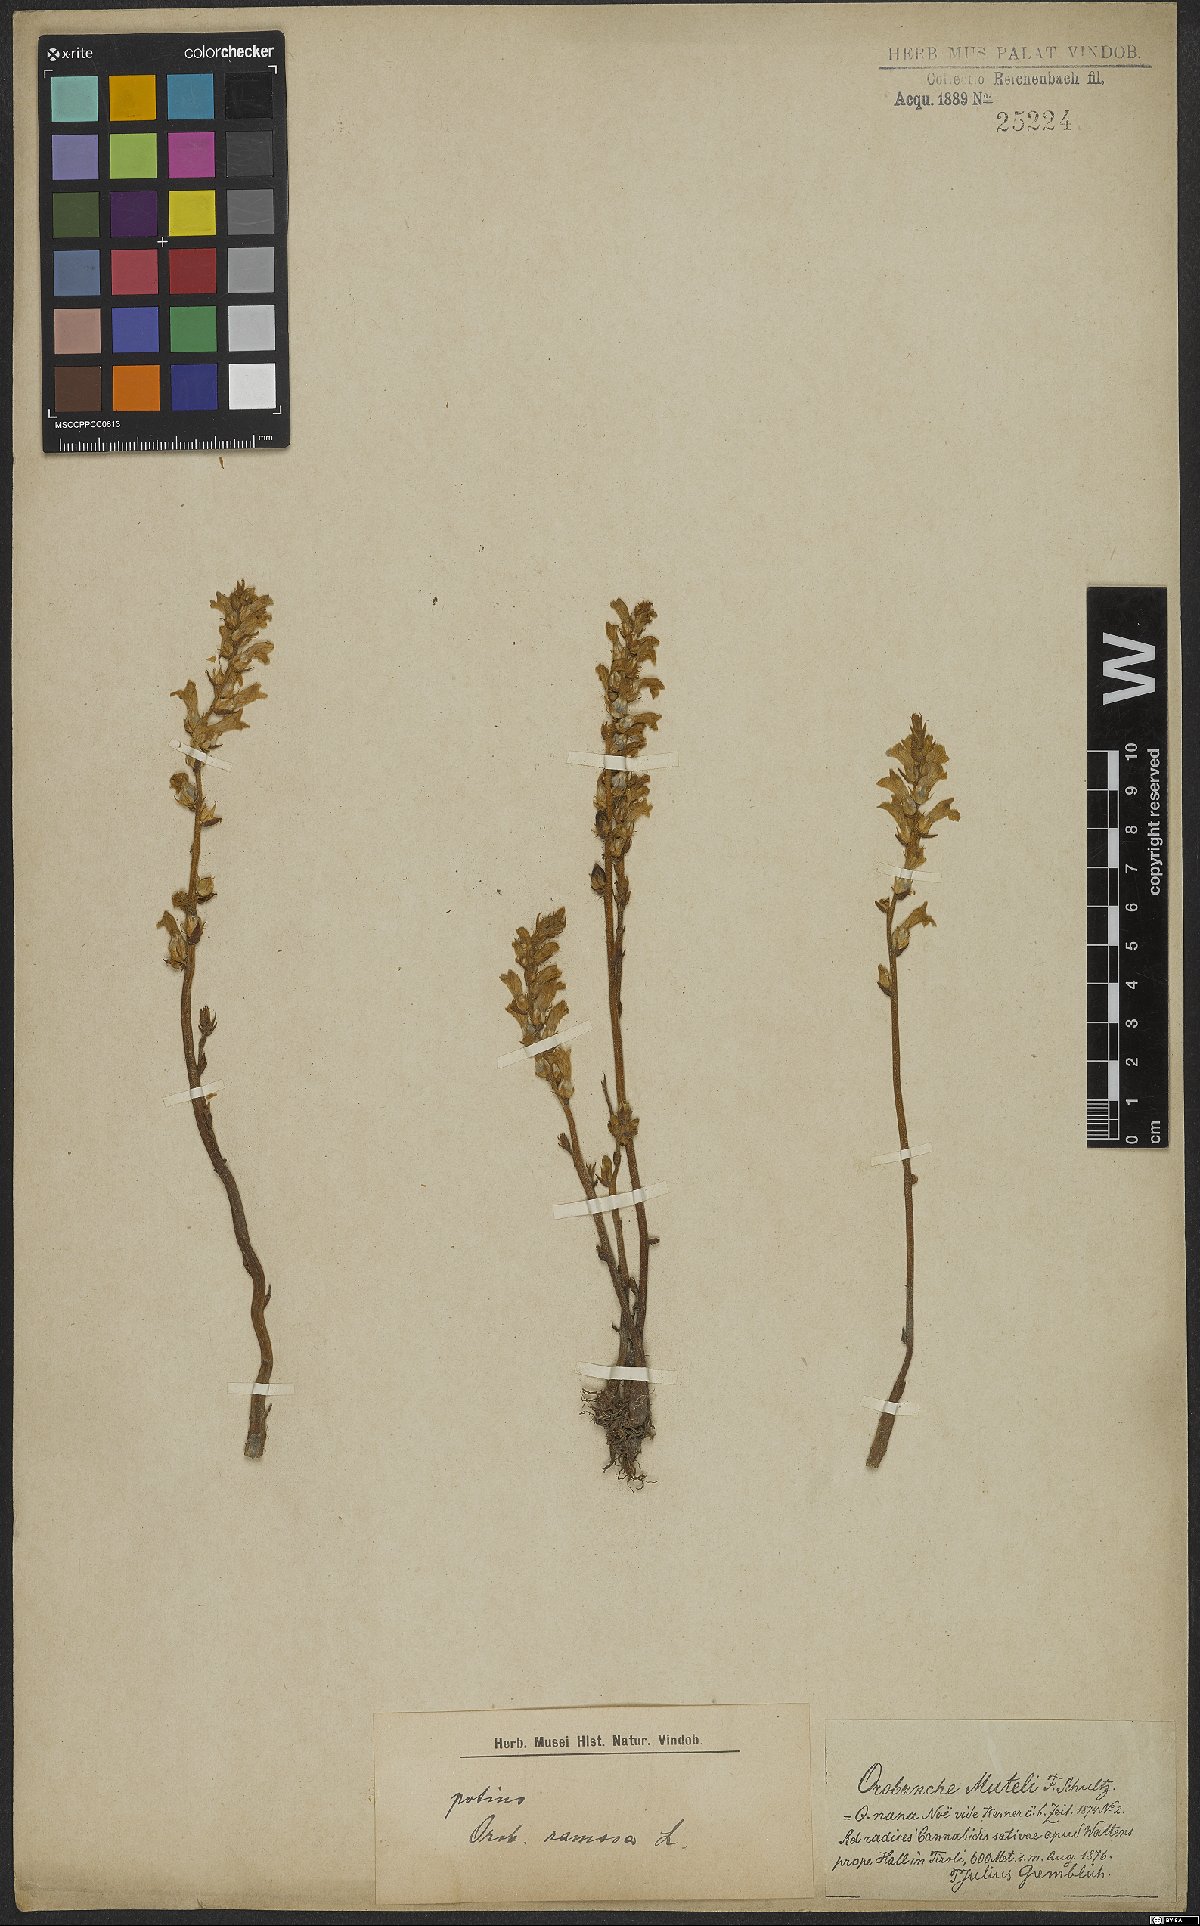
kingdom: Plantae
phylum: Tracheophyta
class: Magnoliopsida
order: Lamiales
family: Orobanchaceae
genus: Phelipanche
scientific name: Phelipanche ramosa
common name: Branched broomrape
